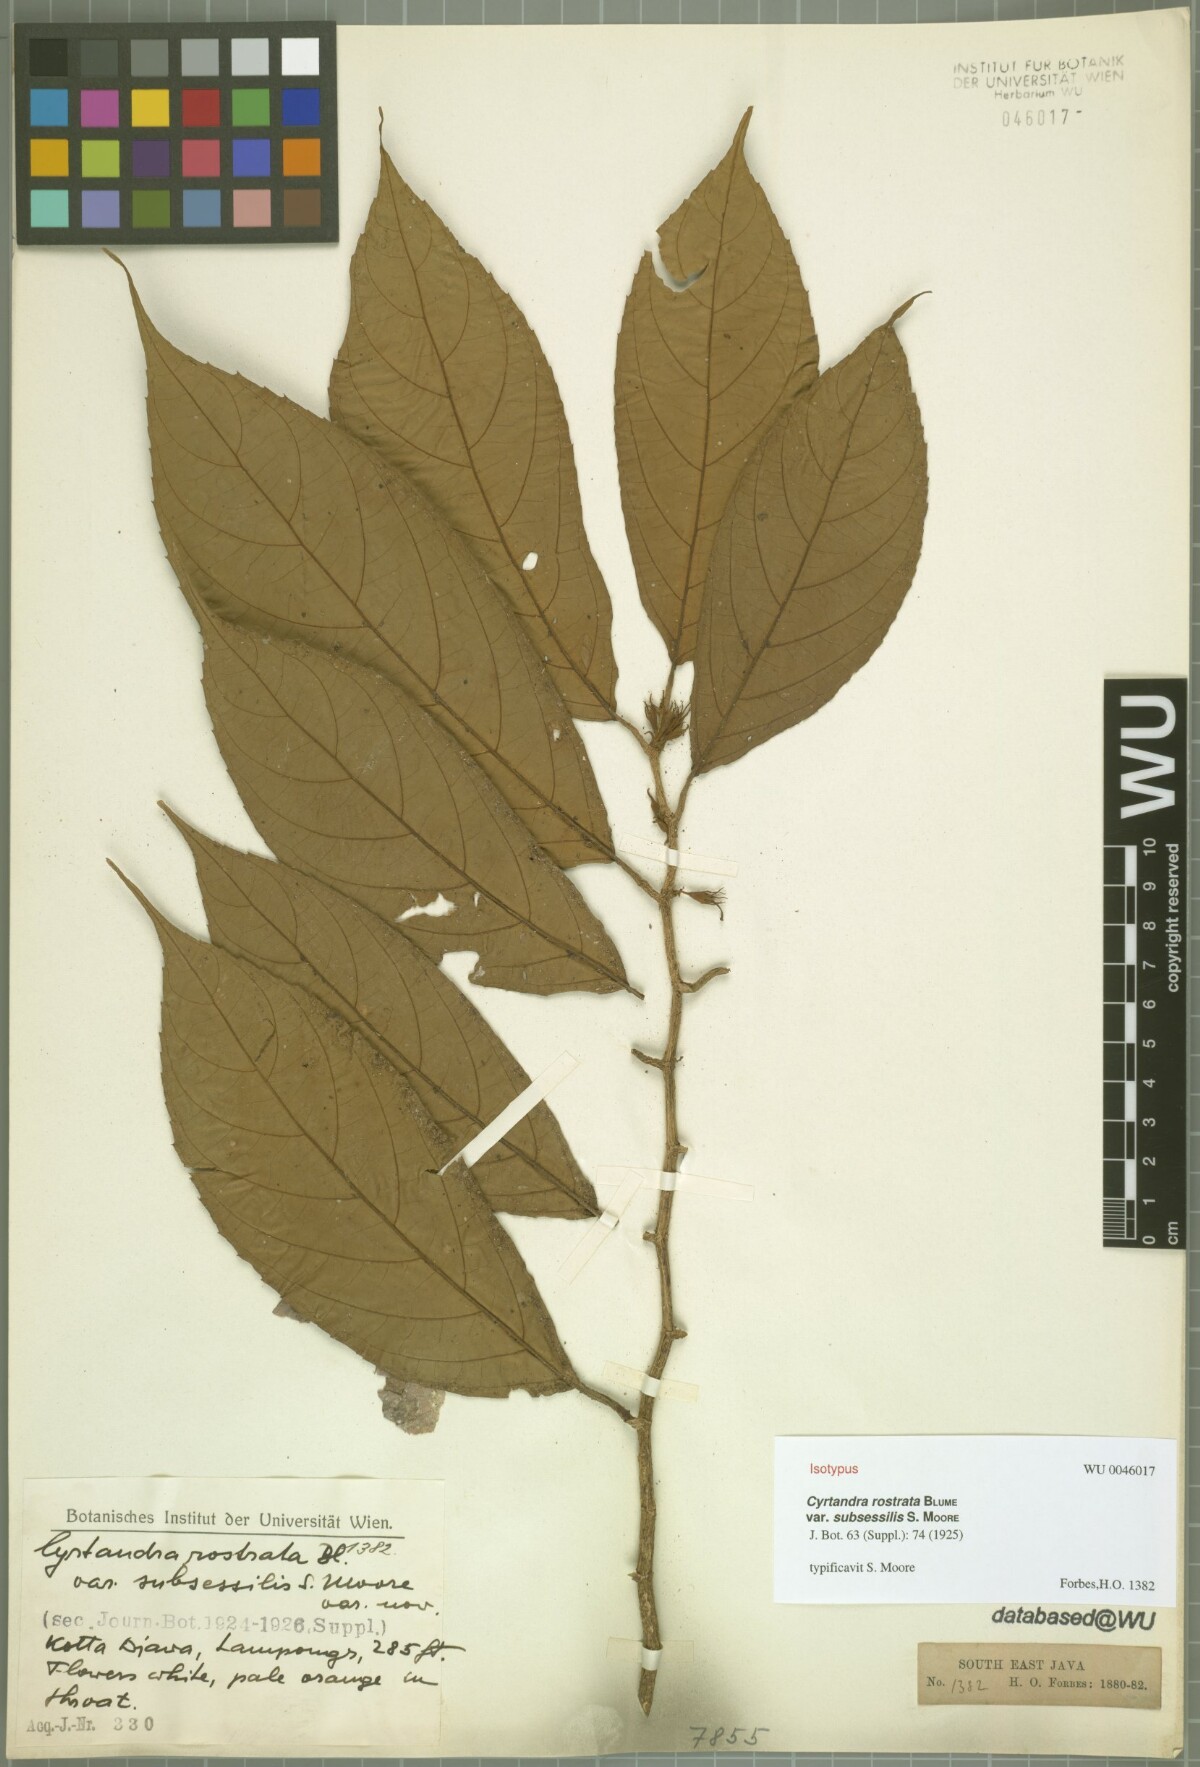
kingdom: Plantae
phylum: Tracheophyta
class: Magnoliopsida
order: Lamiales
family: Gesneriaceae
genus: Cyrtandra
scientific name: Cyrtandra rostrata
